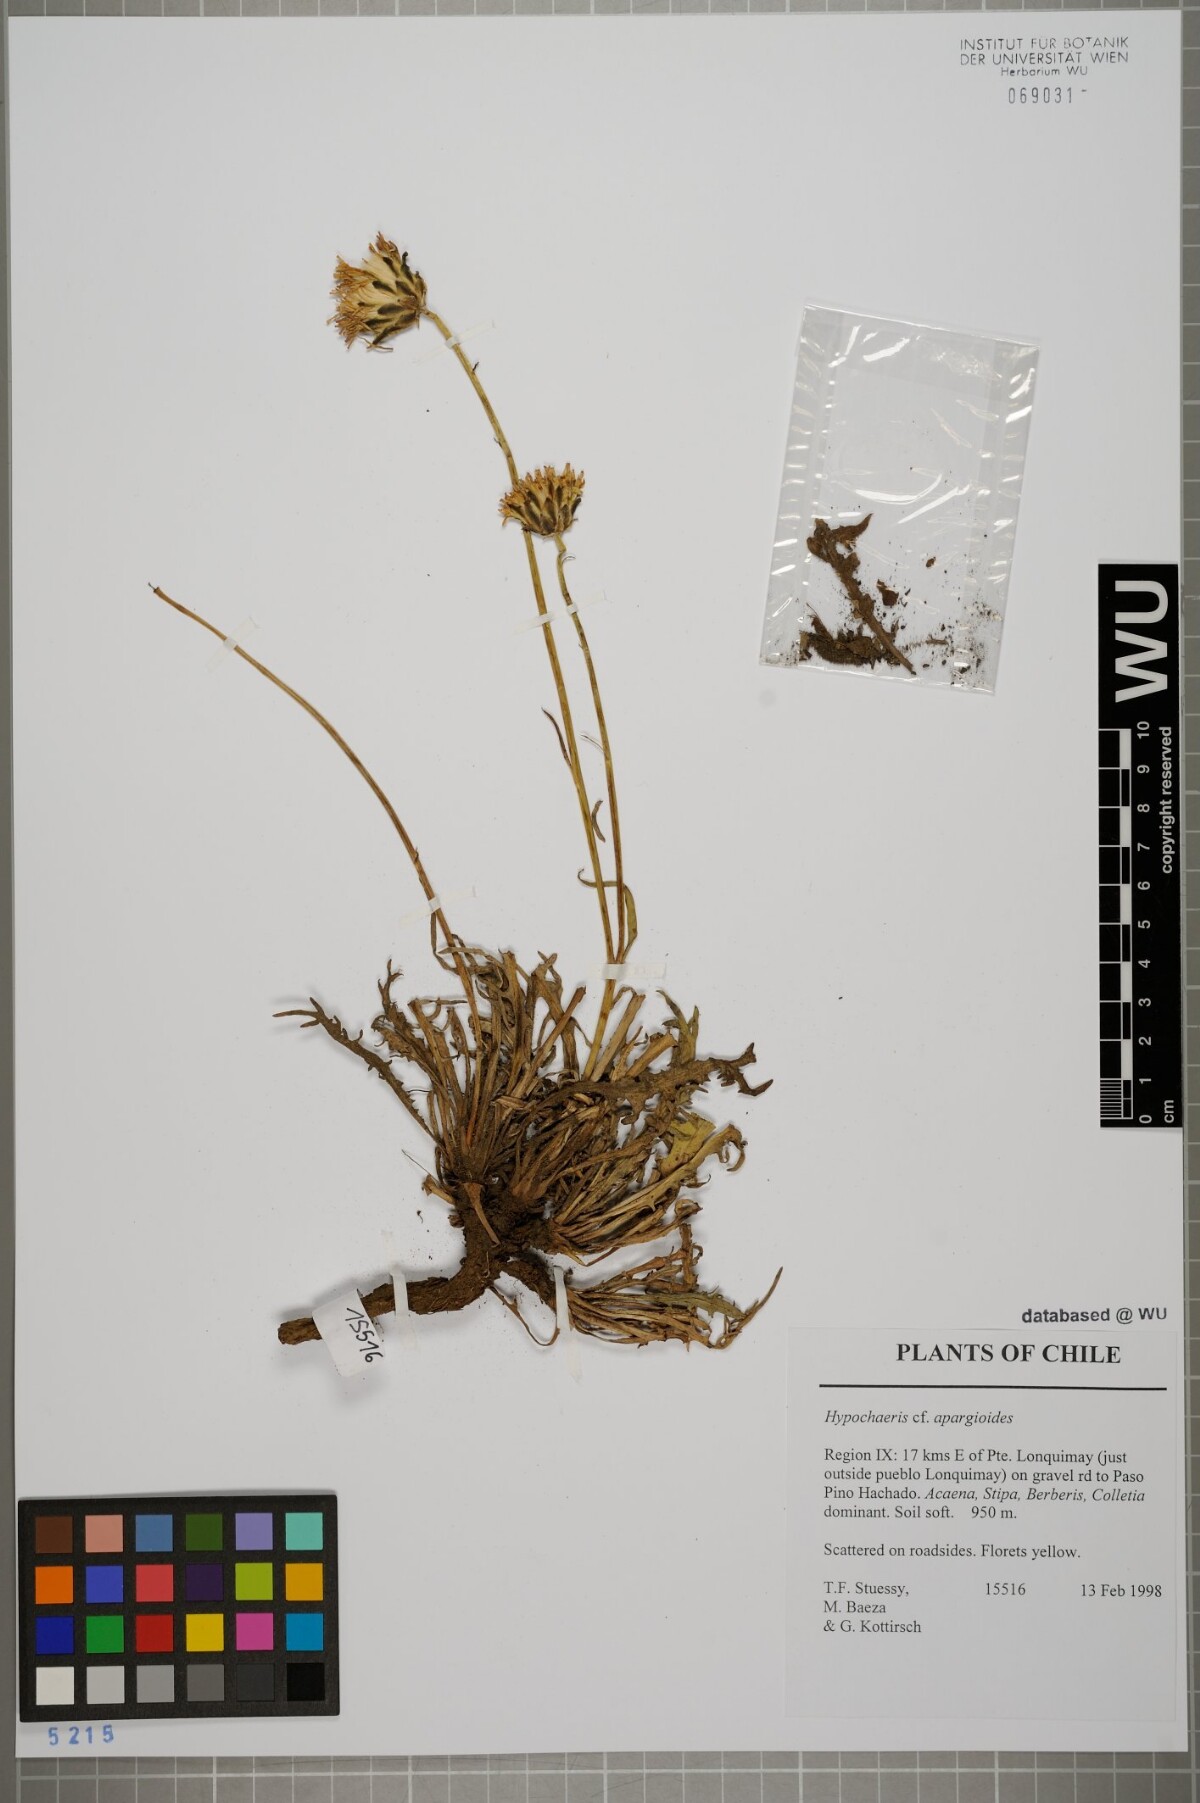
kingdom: Plantae
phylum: Tracheophyta
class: Magnoliopsida
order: Asterales
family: Asteraceae
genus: Hypochaeris
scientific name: Hypochaeris apargioides
